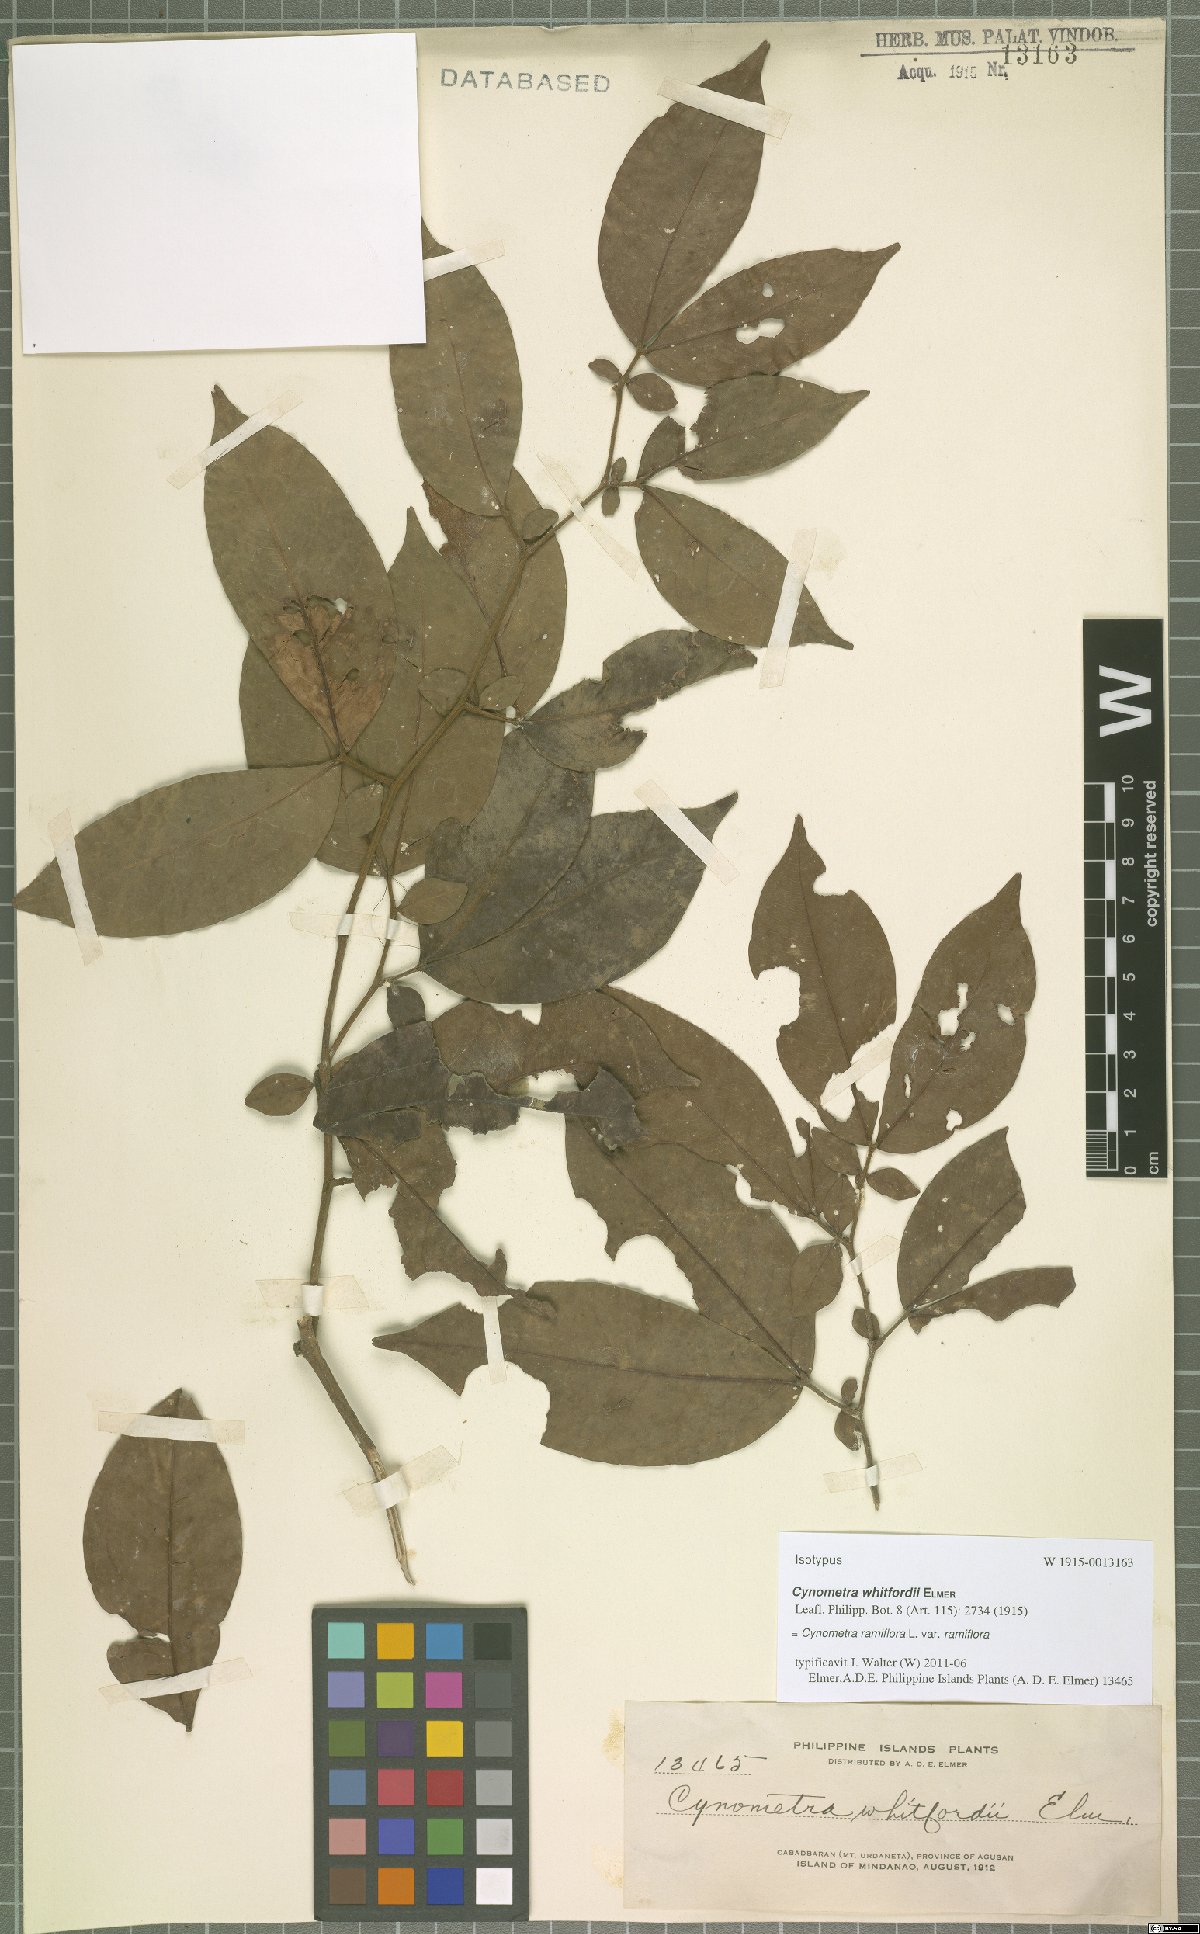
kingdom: Plantae
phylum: Tracheophyta
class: Magnoliopsida
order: Fabales
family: Fabaceae
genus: Cynometra
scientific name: Cynometra ramiflora
